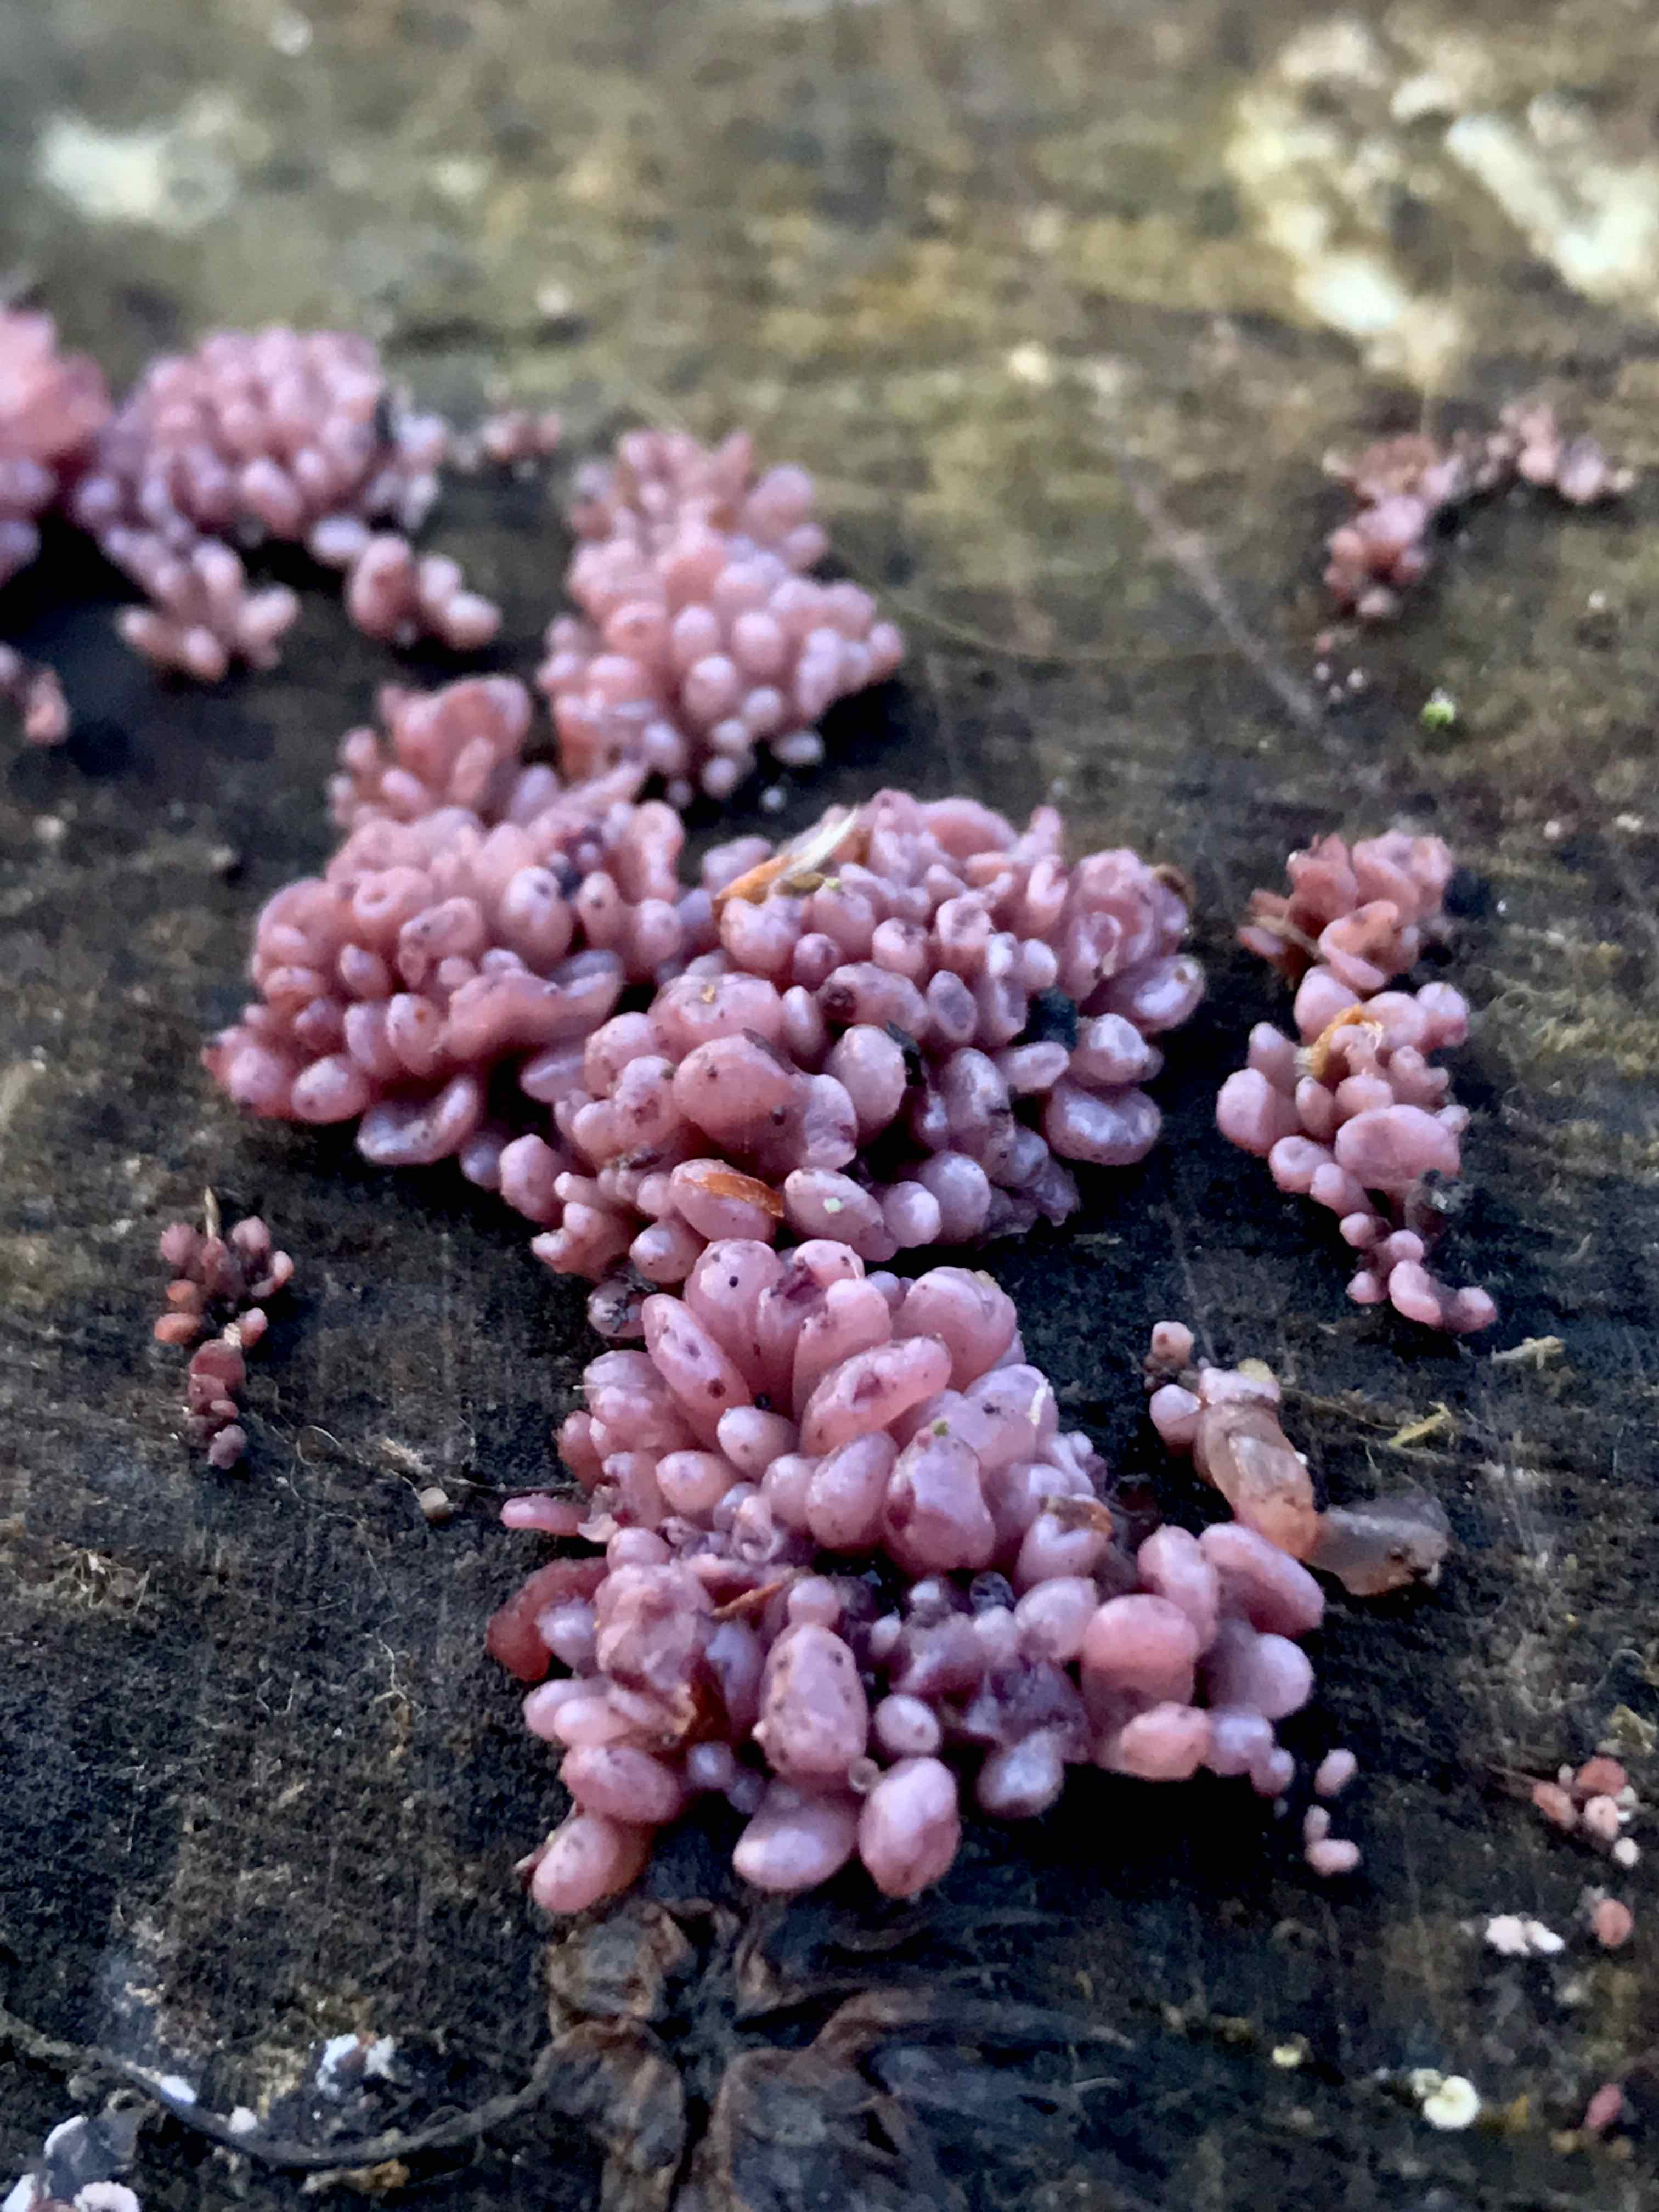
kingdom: Fungi
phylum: Ascomycota
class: Leotiomycetes
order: Helotiales
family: Gelatinodiscaceae
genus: Ascocoryne
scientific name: Ascocoryne sarcoides
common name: rødlilla sejskive
